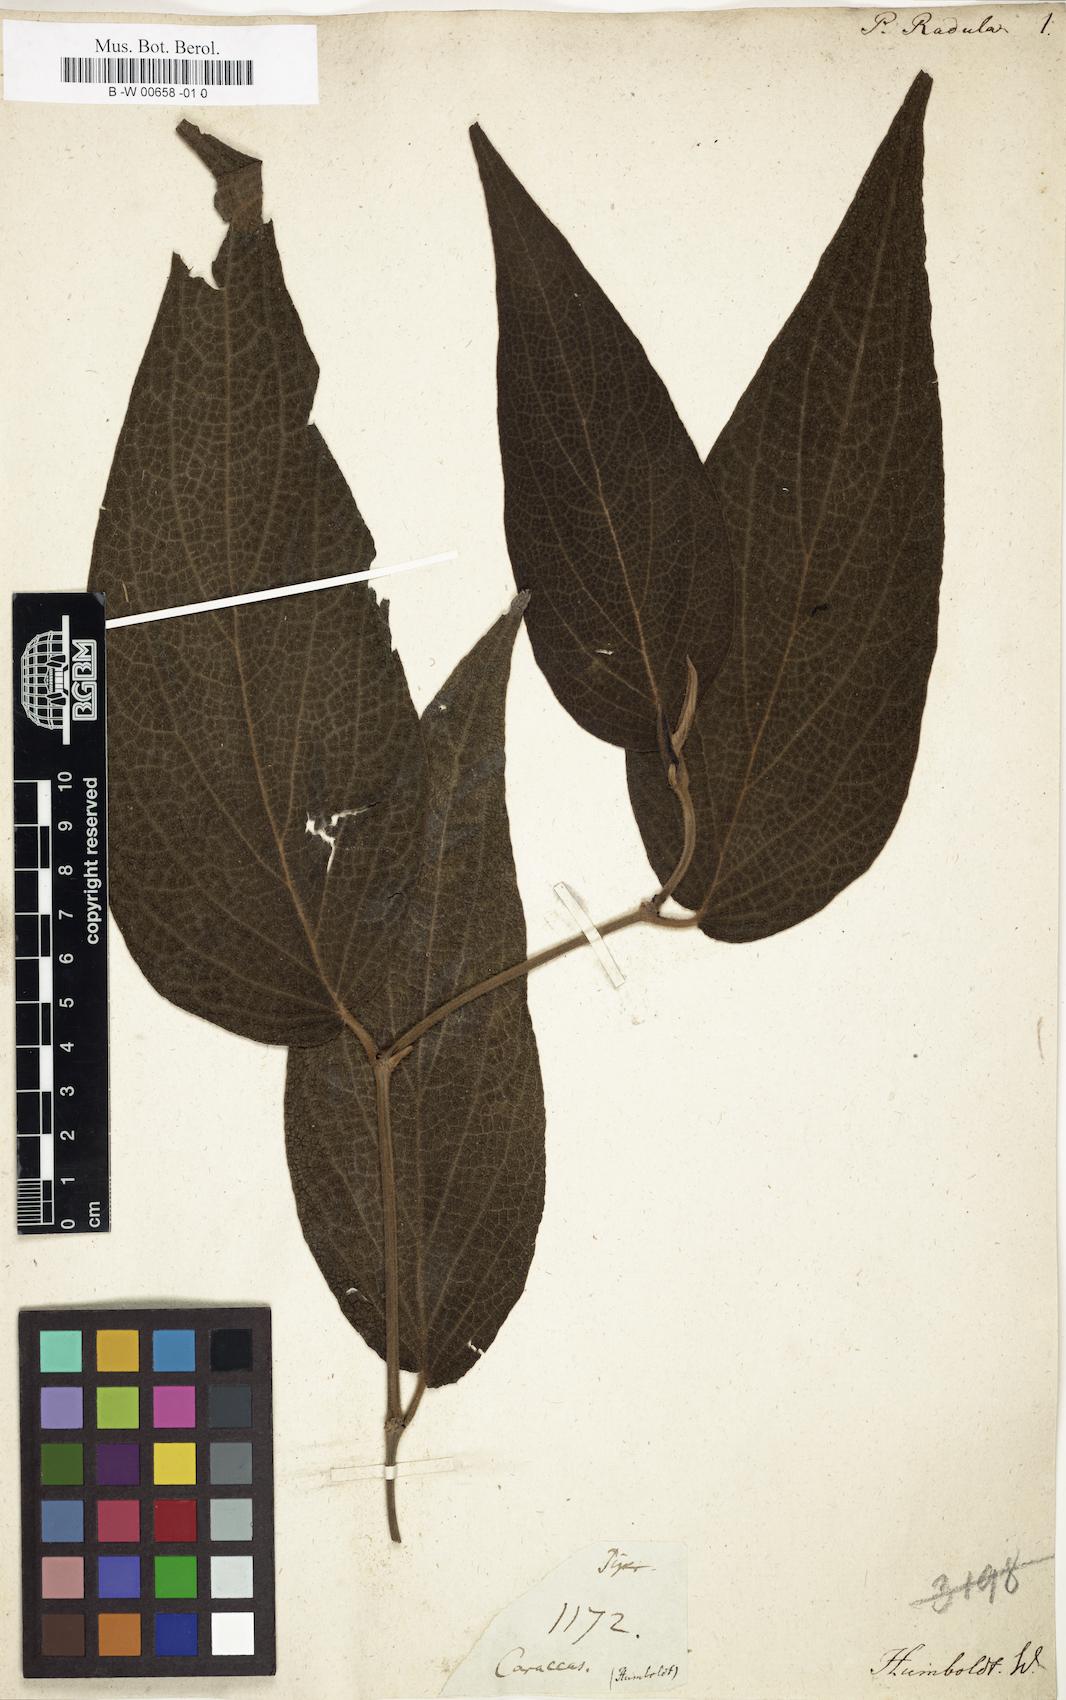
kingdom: Plantae
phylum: Tracheophyta
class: Magnoliopsida
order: Piperales
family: Piperaceae
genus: Piper
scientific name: Piper bredemeyeri
